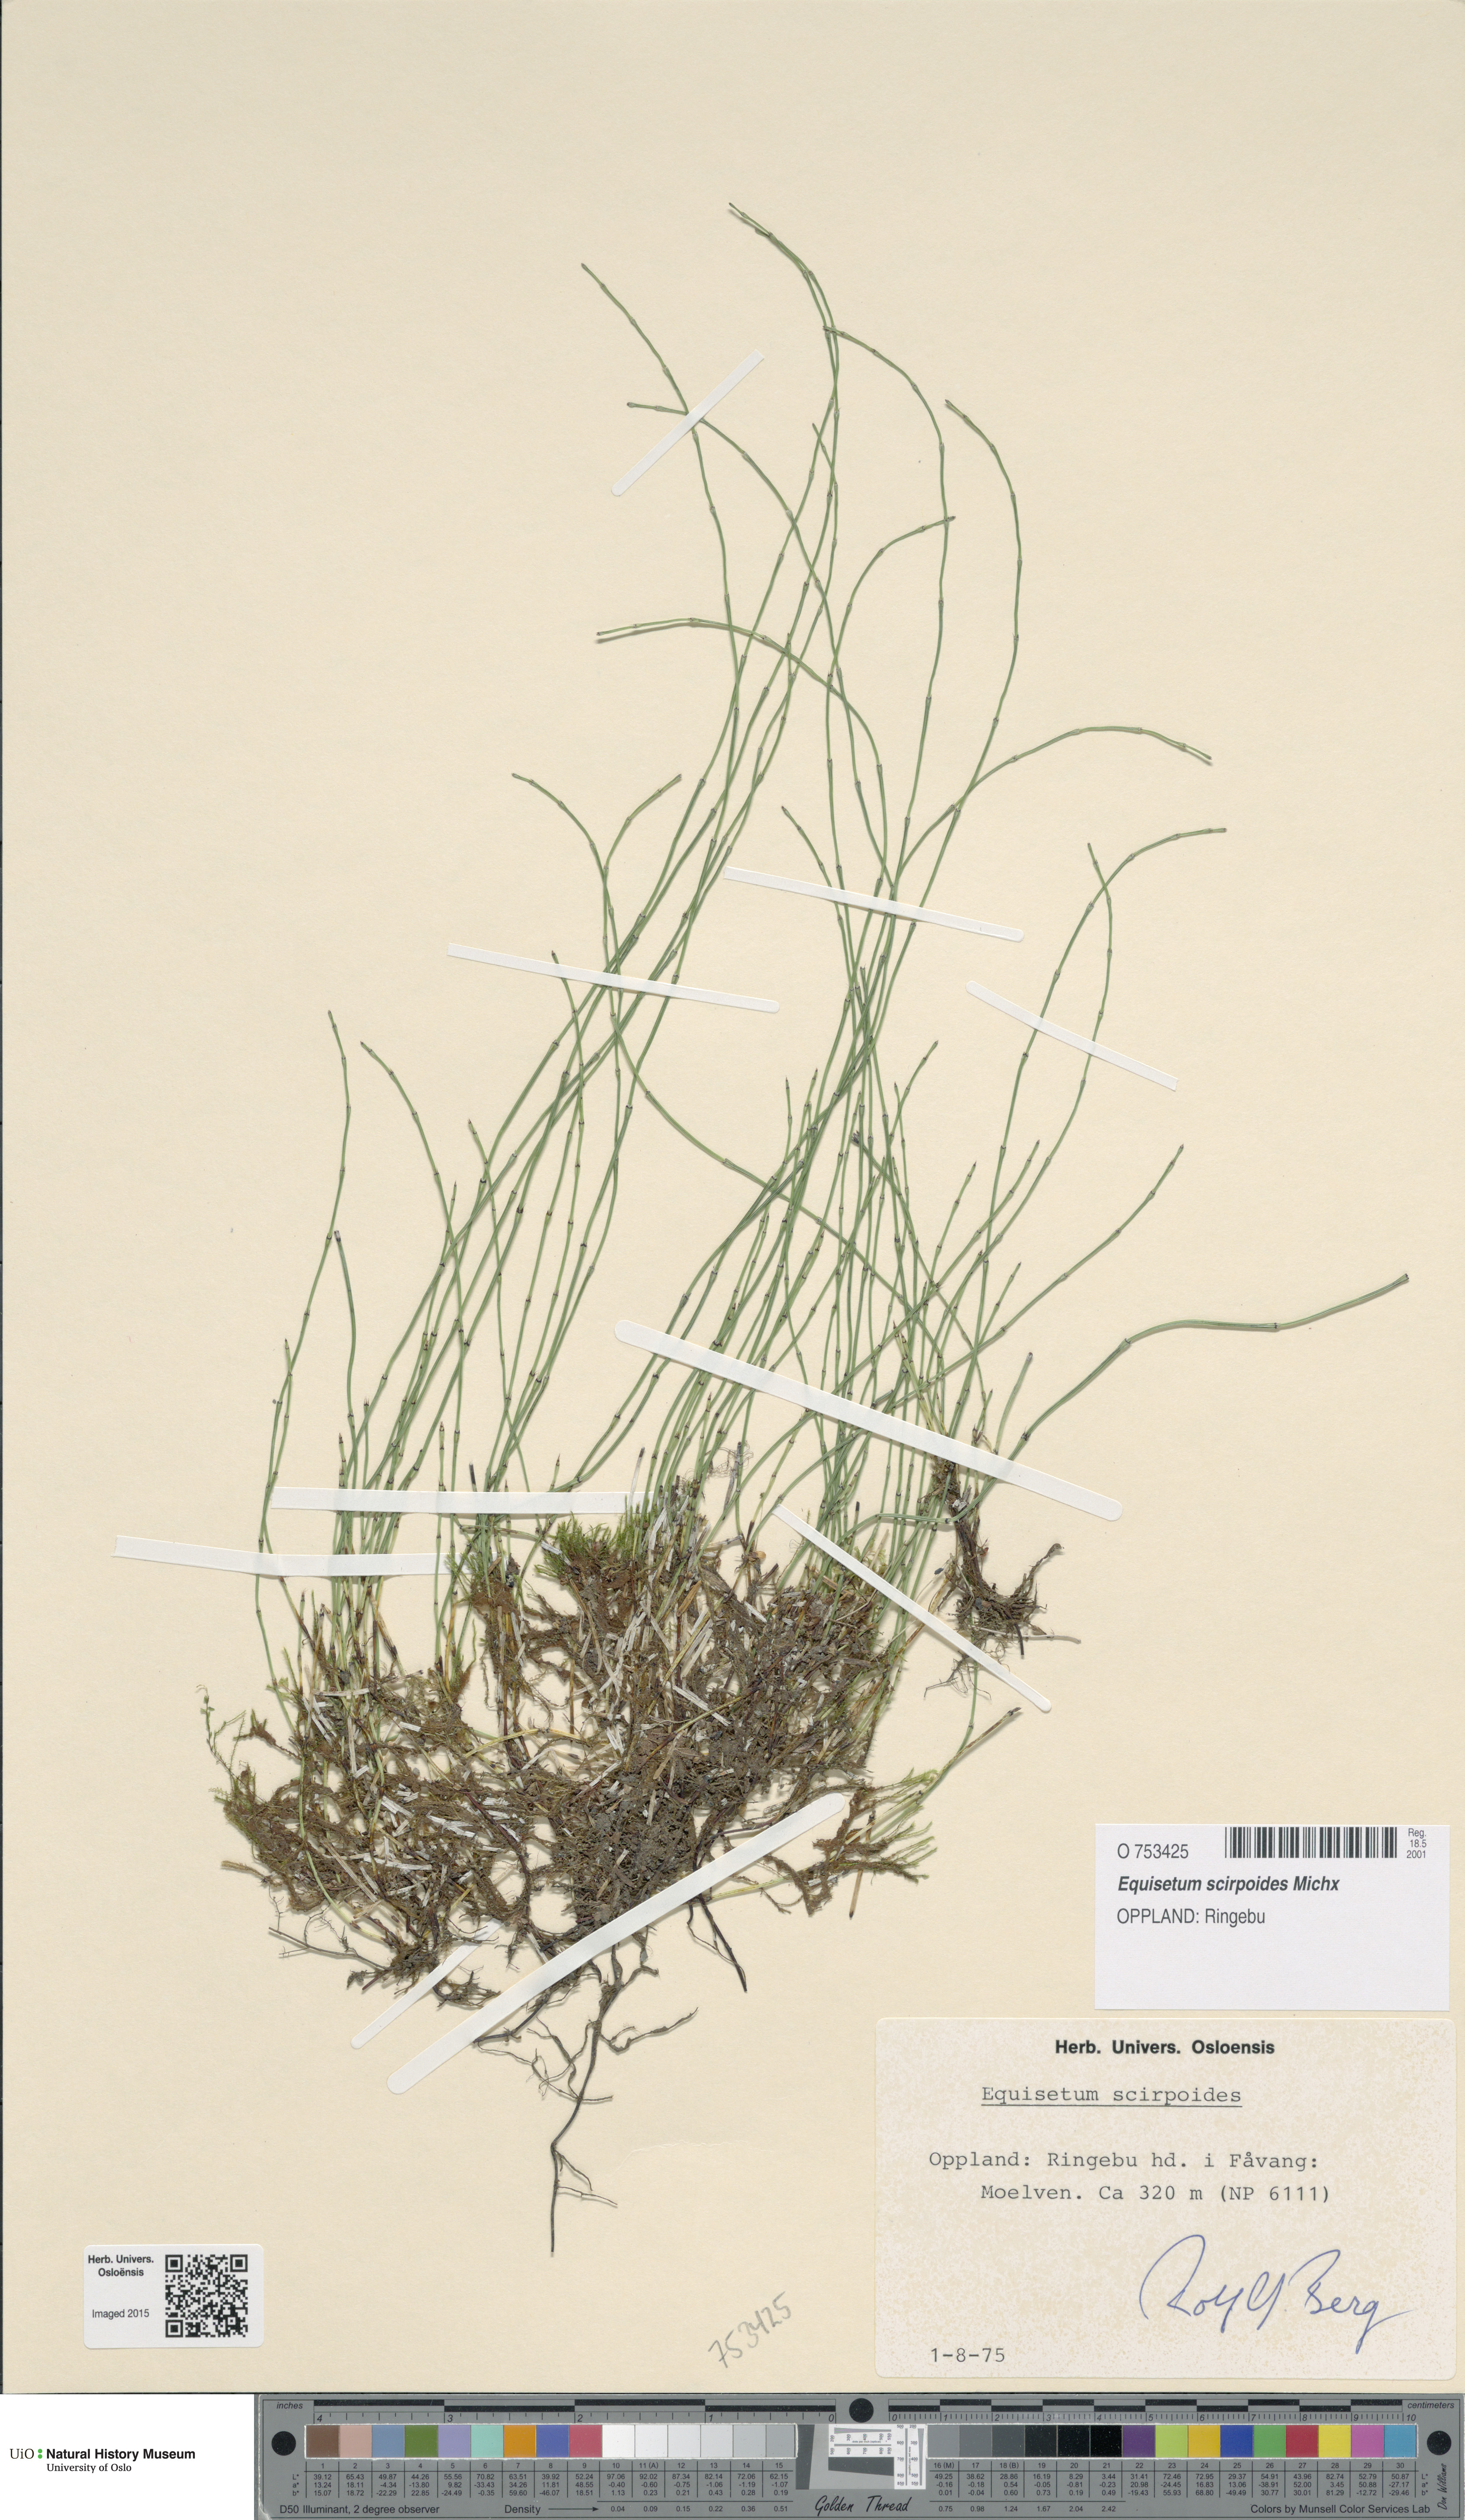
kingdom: Plantae
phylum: Tracheophyta
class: Polypodiopsida
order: Equisetales
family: Equisetaceae
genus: Equisetum
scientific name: Equisetum scirpoides
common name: Delicate horsetail
